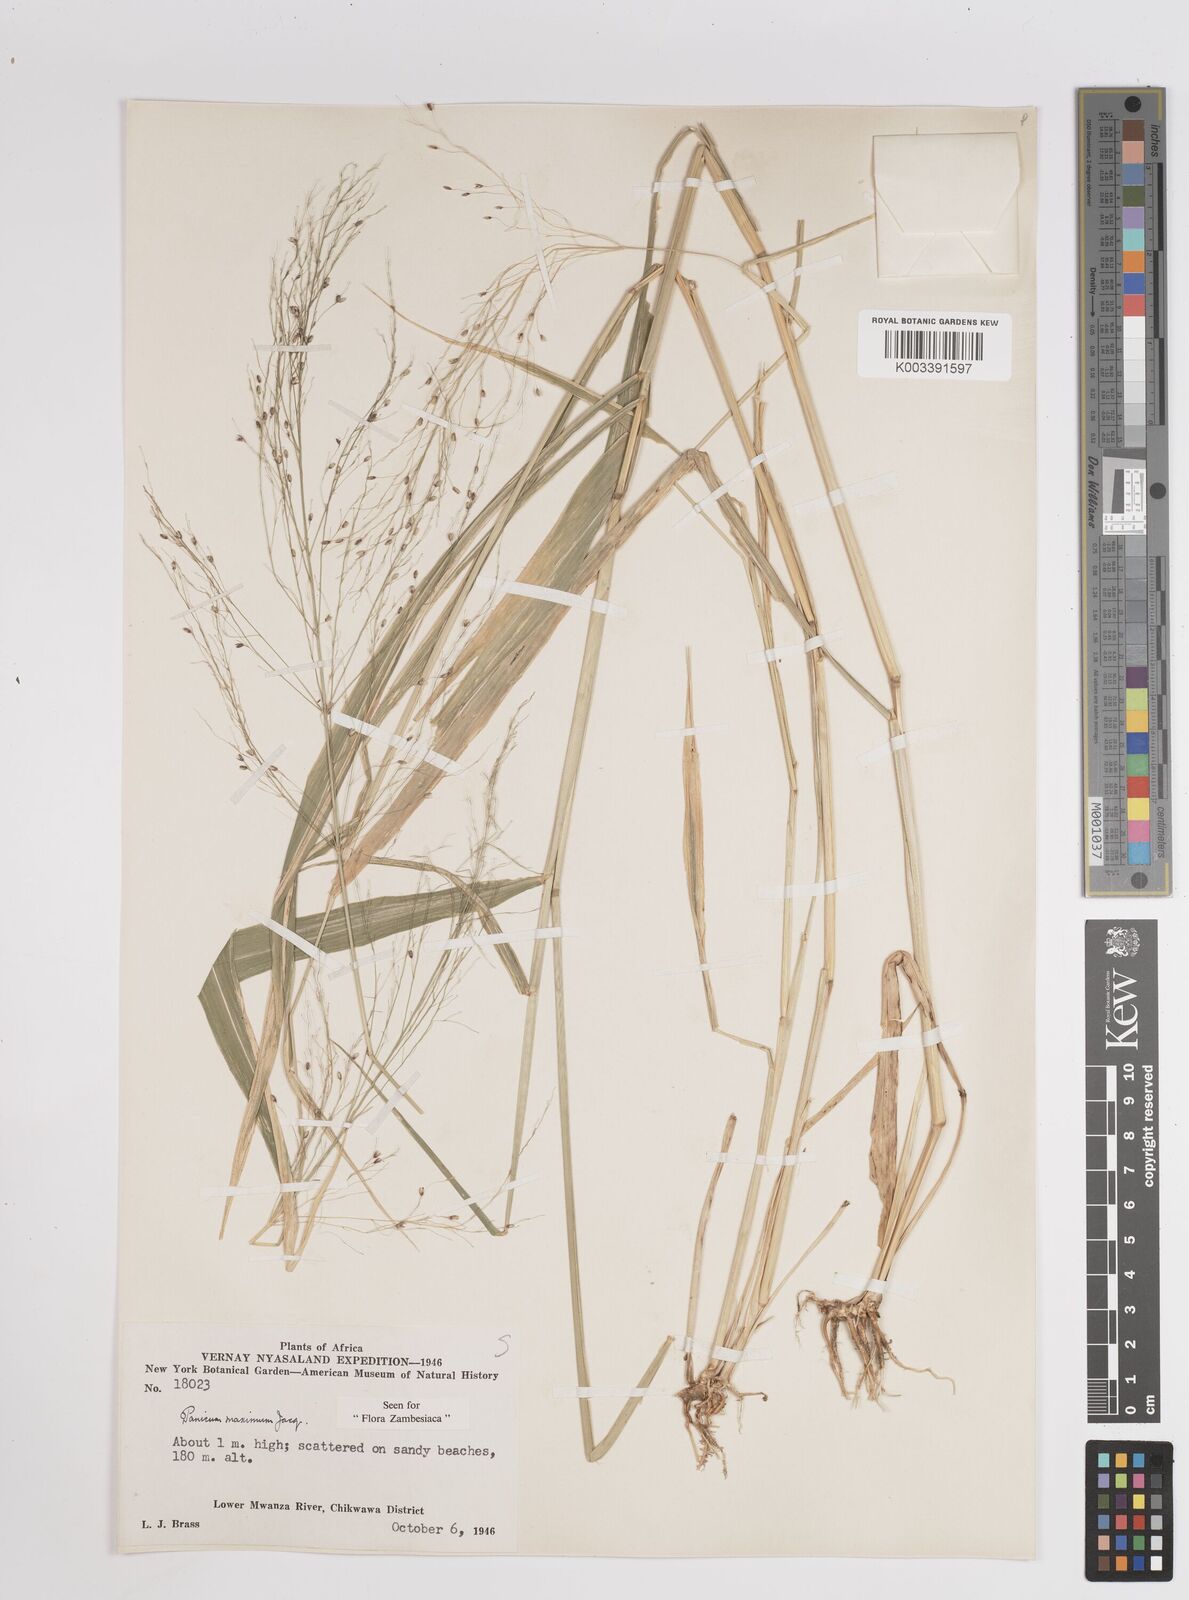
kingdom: Plantae
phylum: Tracheophyta
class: Liliopsida
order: Poales
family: Poaceae
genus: Megathyrsus
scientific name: Megathyrsus maximus
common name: Guineagrass
